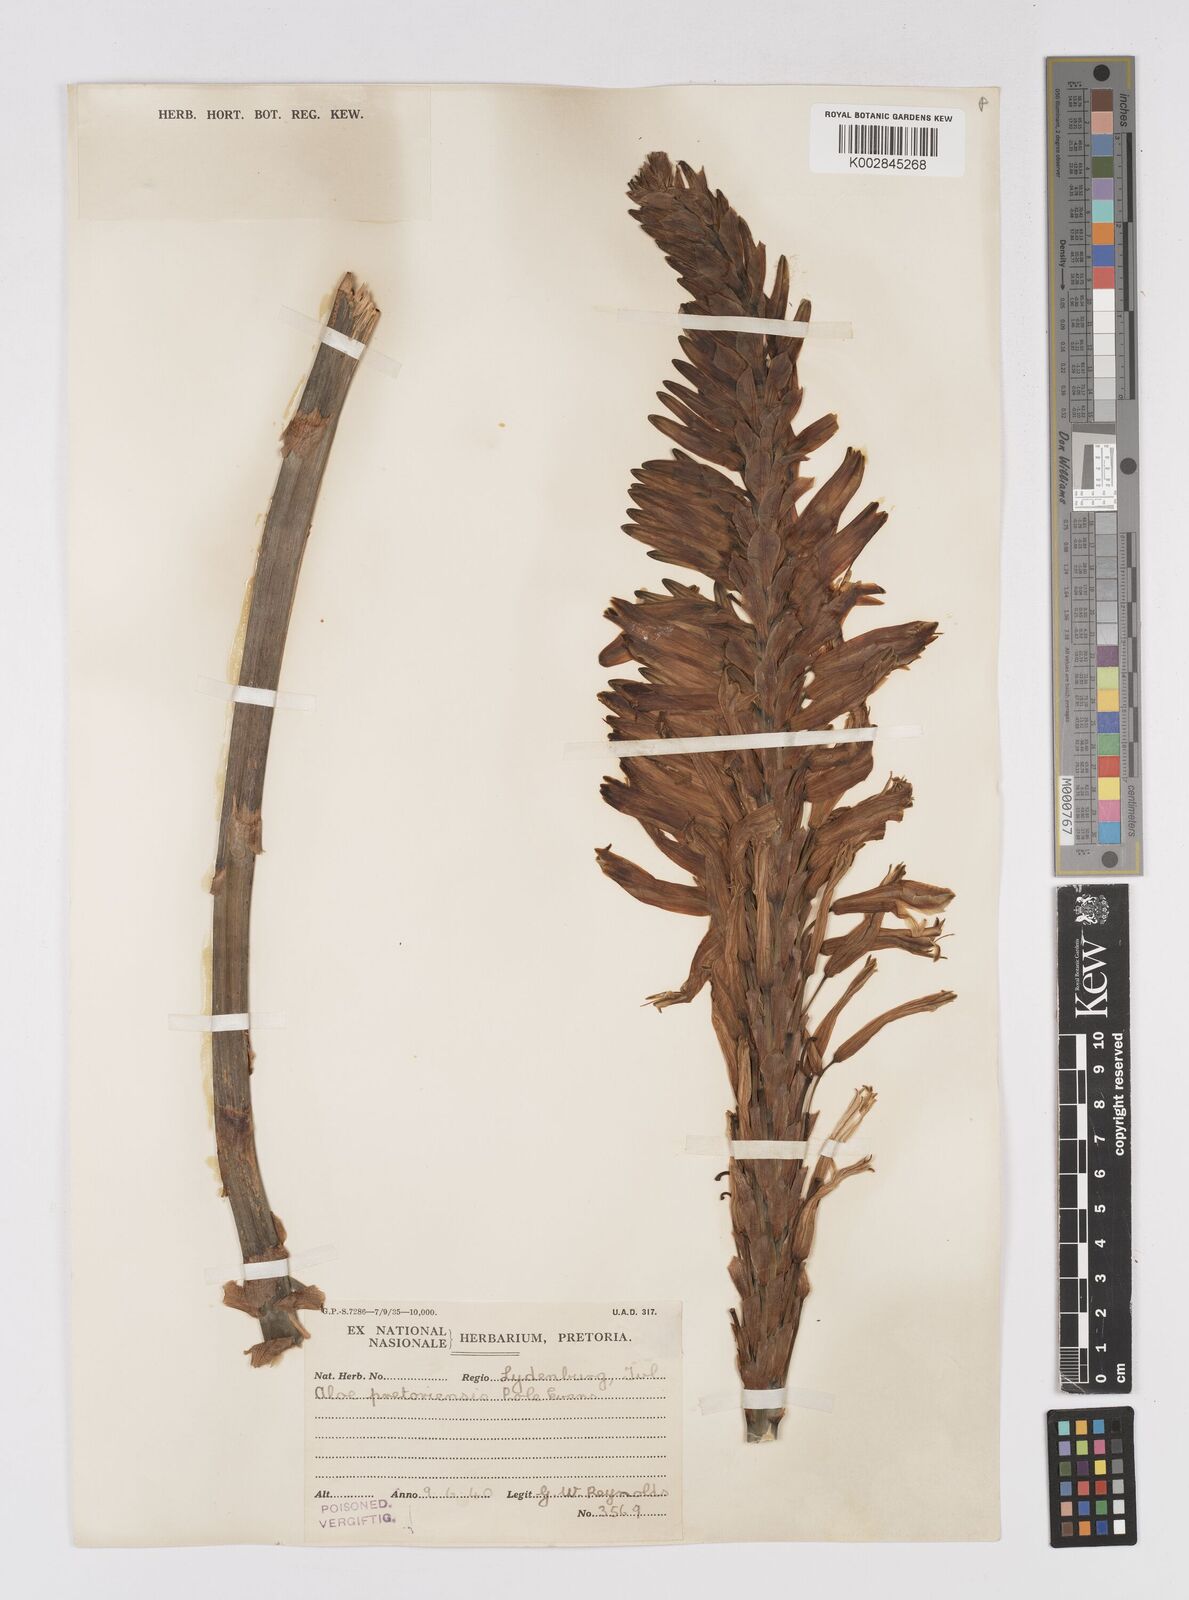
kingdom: Plantae
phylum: Tracheophyta
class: Liliopsida
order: Asparagales
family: Asphodelaceae
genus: Aloe
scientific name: Aloe pretoriensis
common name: Pretoria aloe
